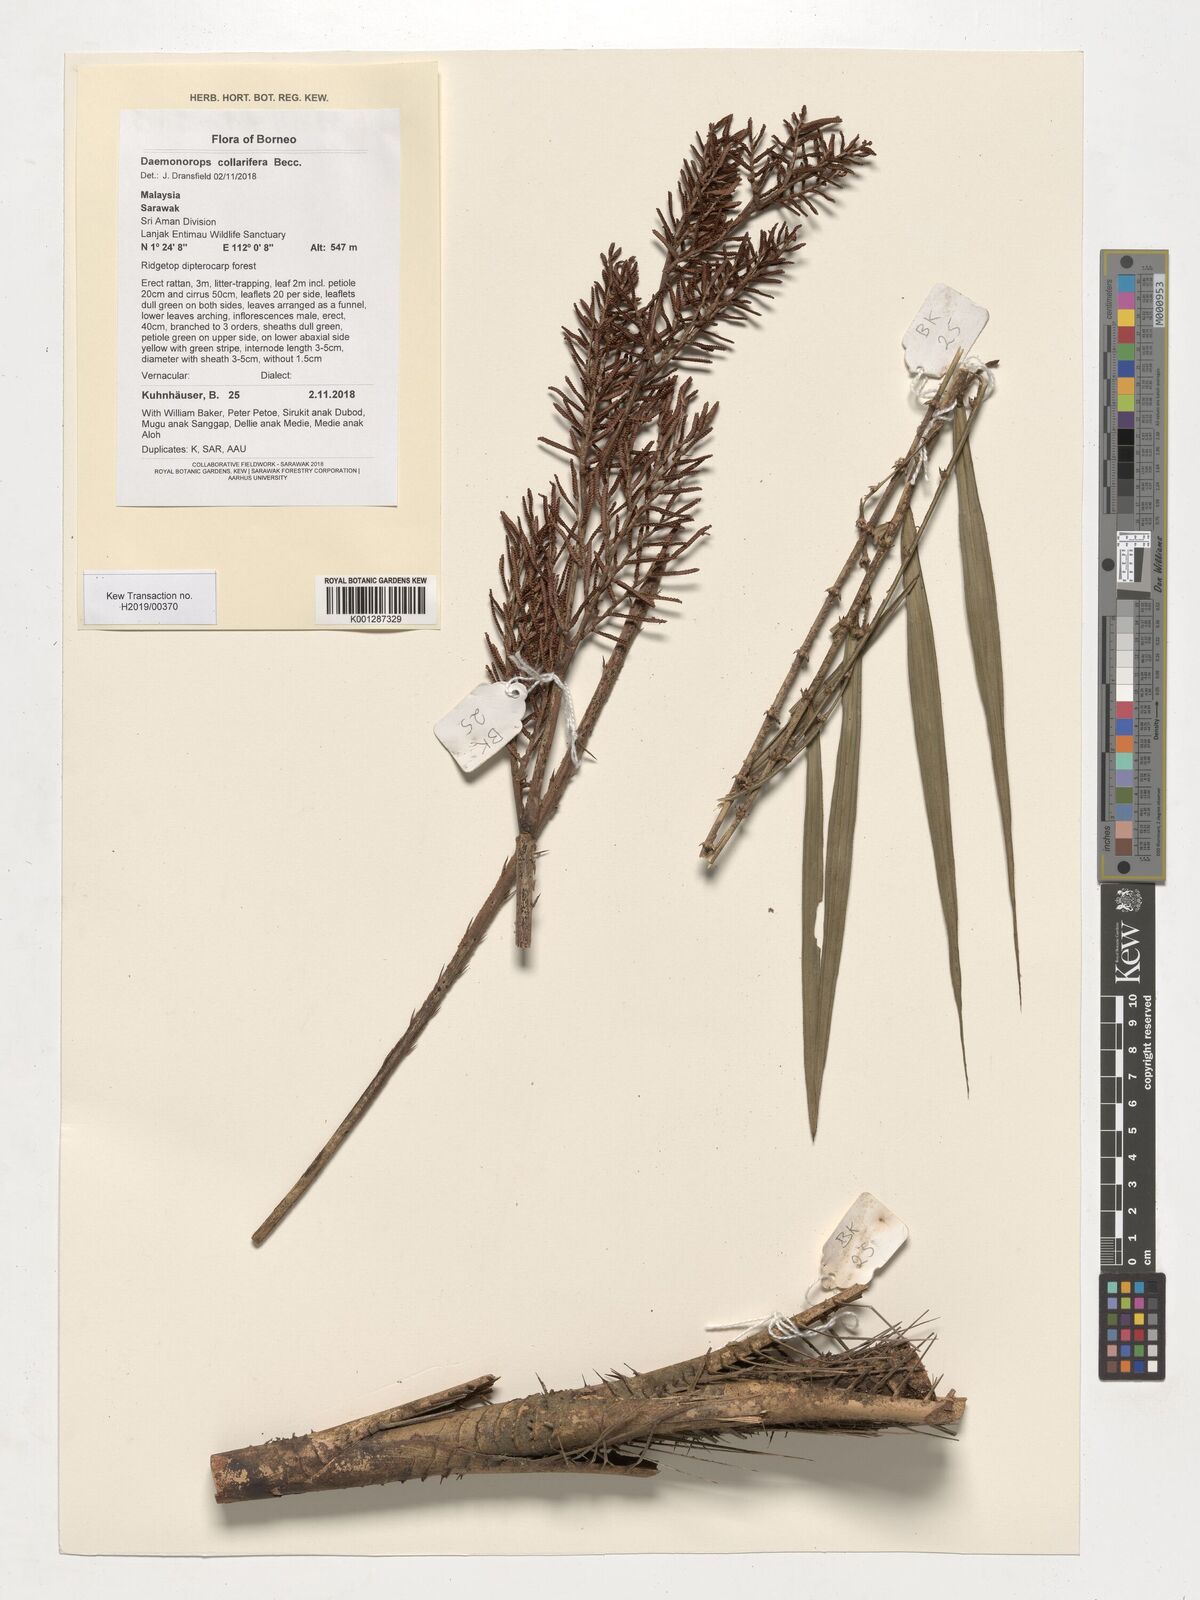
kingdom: Plantae
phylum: Tracheophyta
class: Liliopsida
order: Arecales
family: Arecaceae
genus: Calamus
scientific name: Calamus geniculatus
